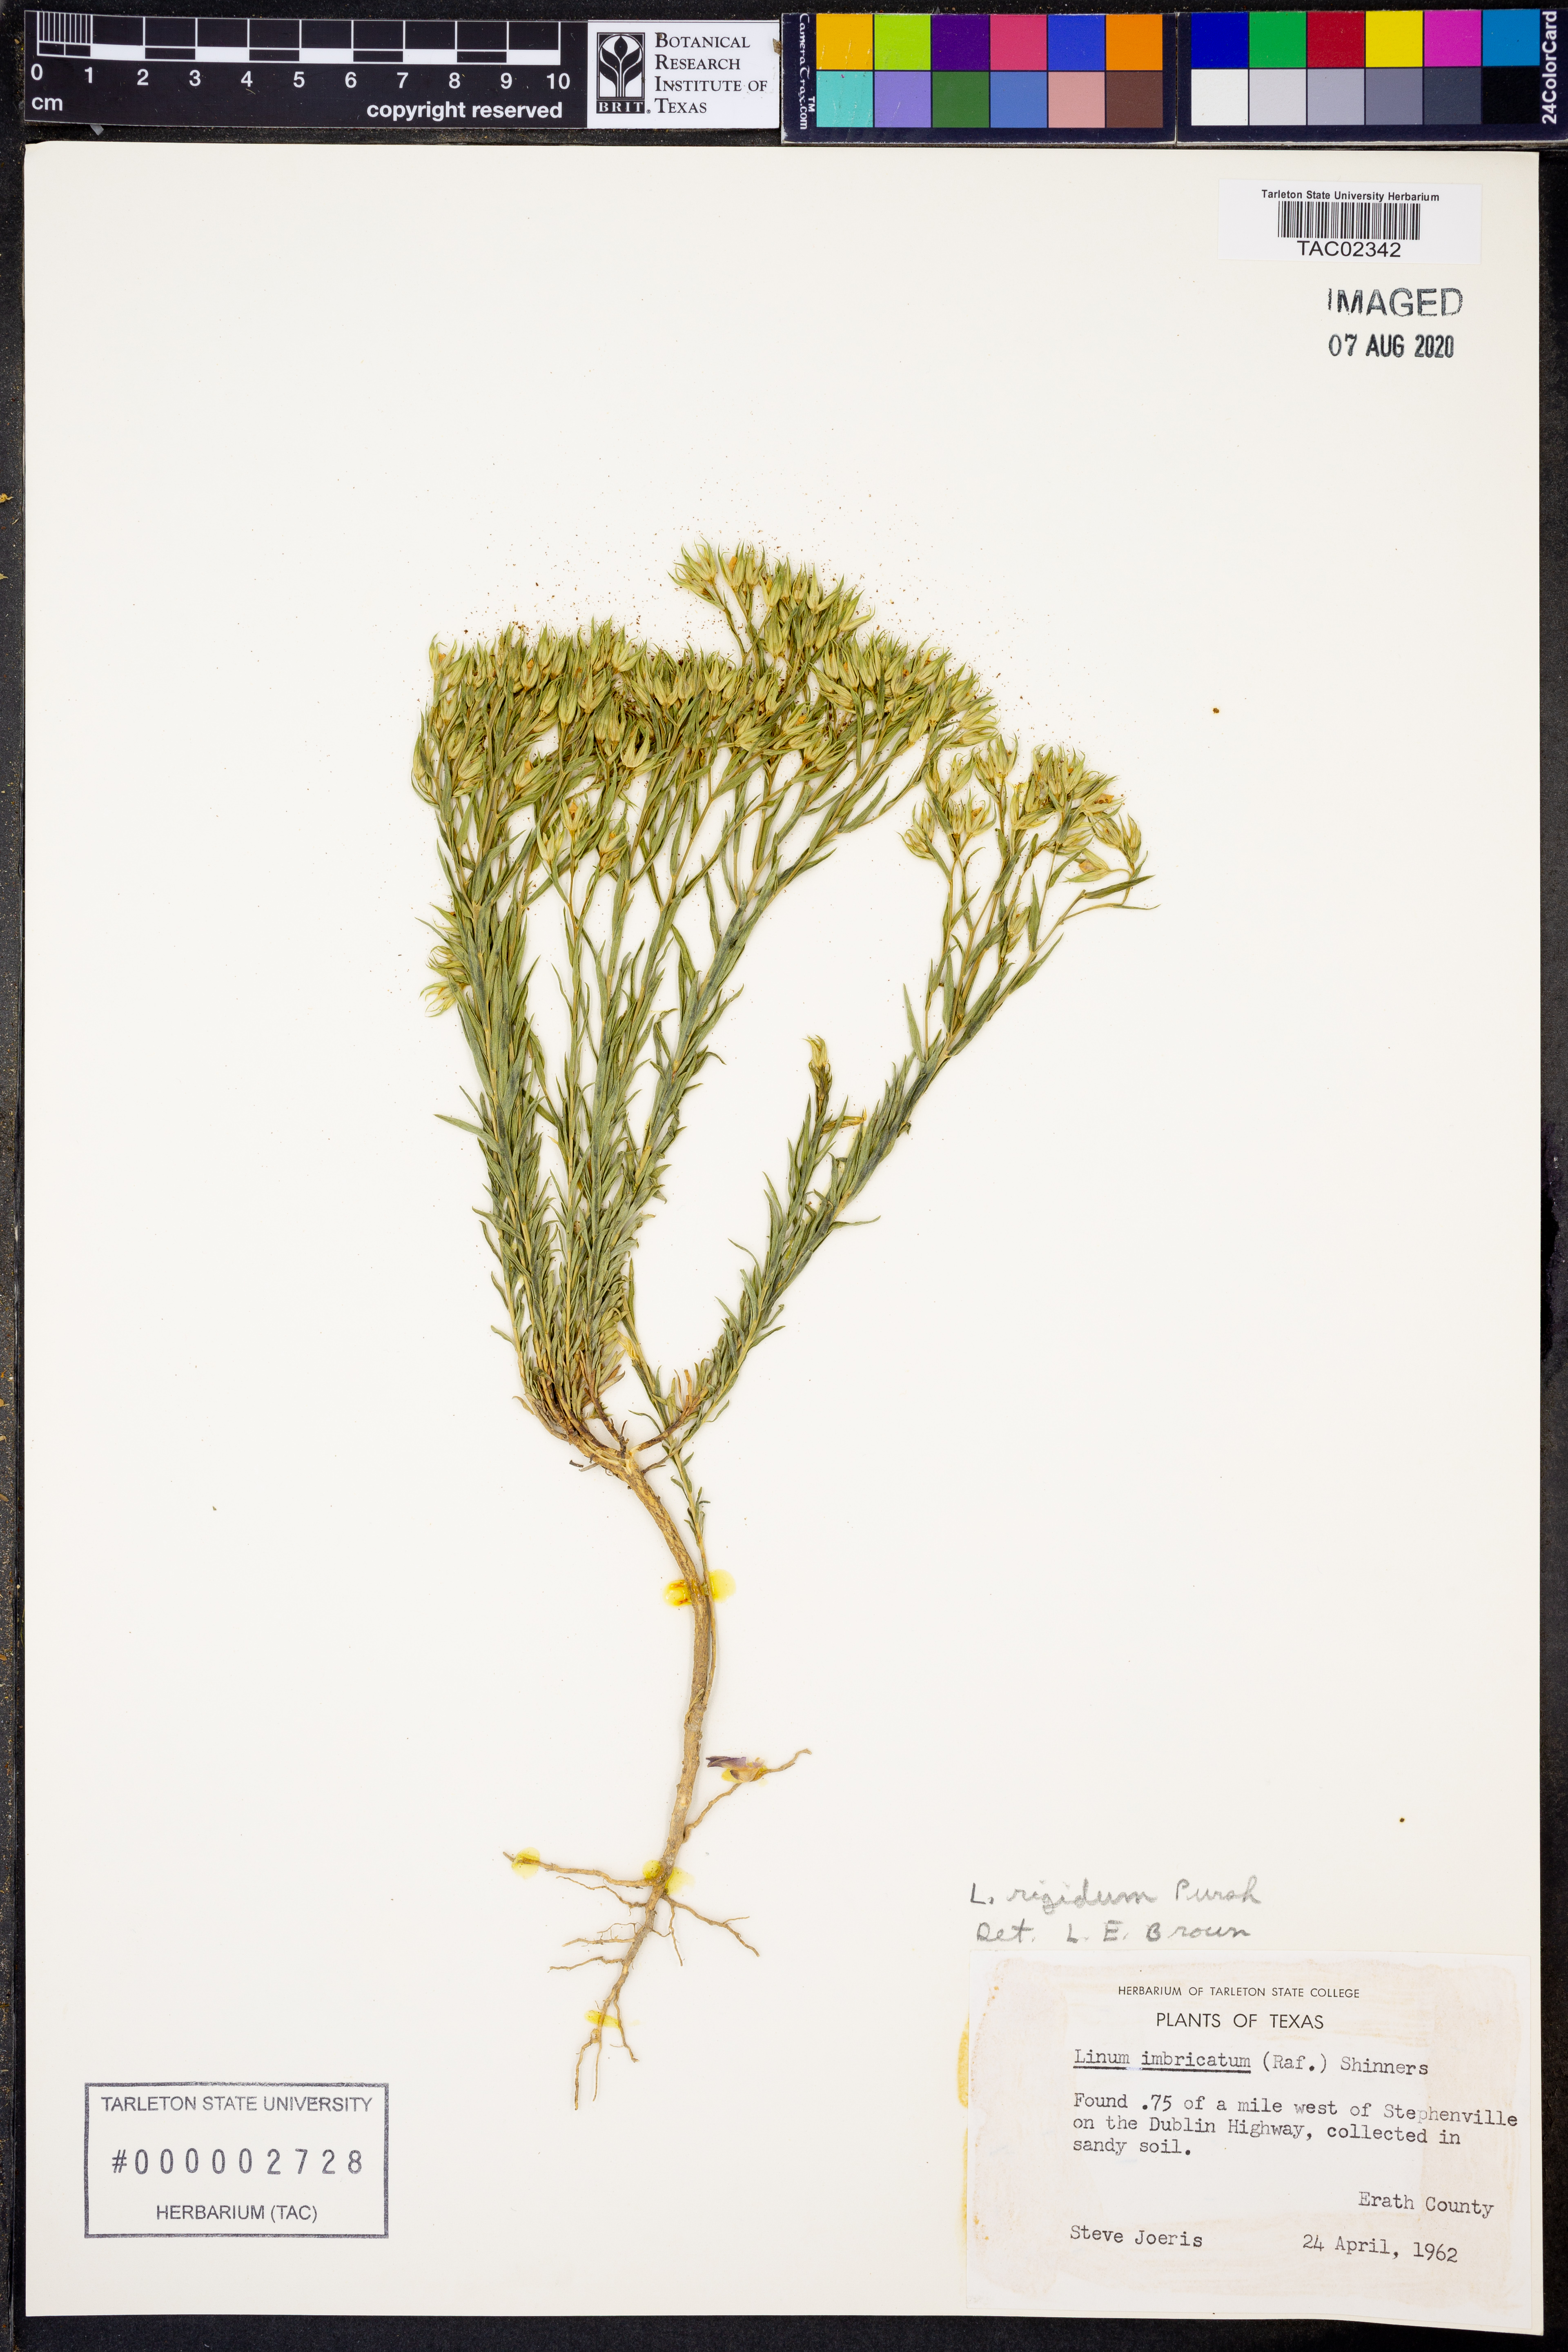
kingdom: Plantae
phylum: Tracheophyta
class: Magnoliopsida
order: Malpighiales
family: Linaceae
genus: Linum
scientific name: Linum rigidum
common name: Stiff-stem flax
